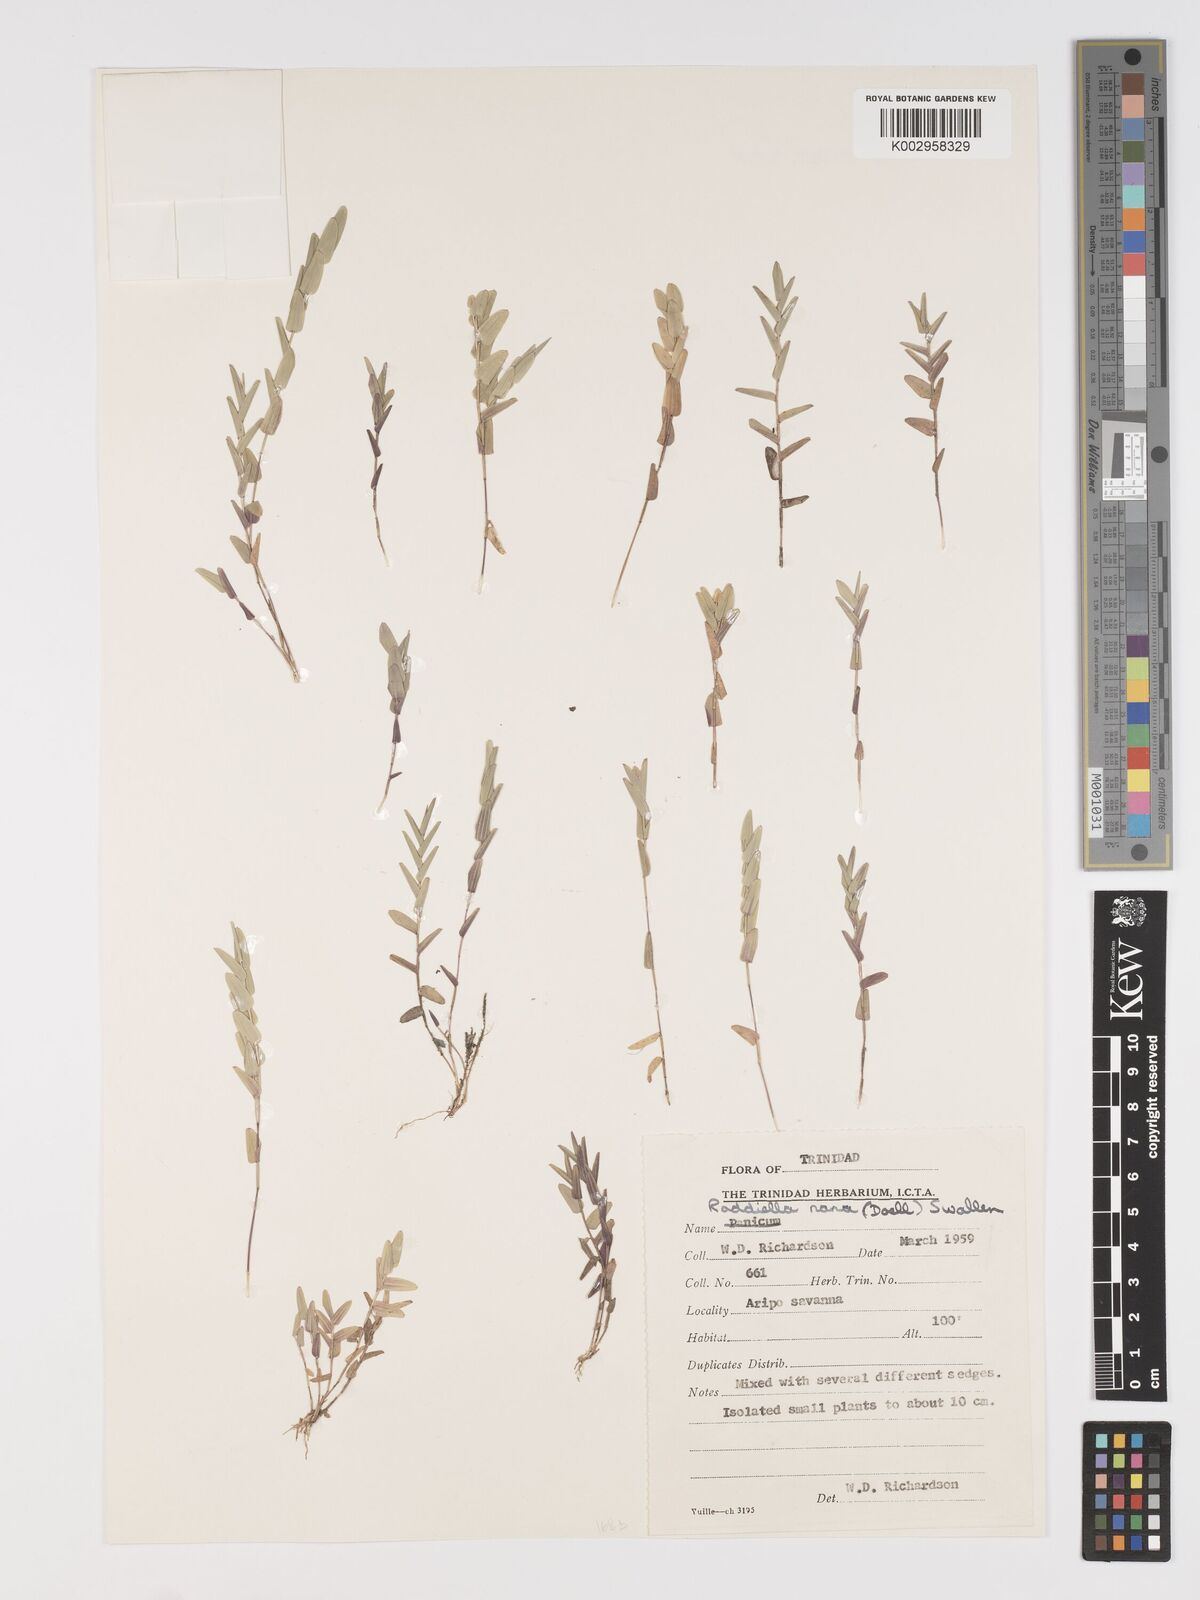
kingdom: Plantae
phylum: Tracheophyta
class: Liliopsida
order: Poales
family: Poaceae
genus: Raddiella
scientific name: Raddiella esenbeckii
